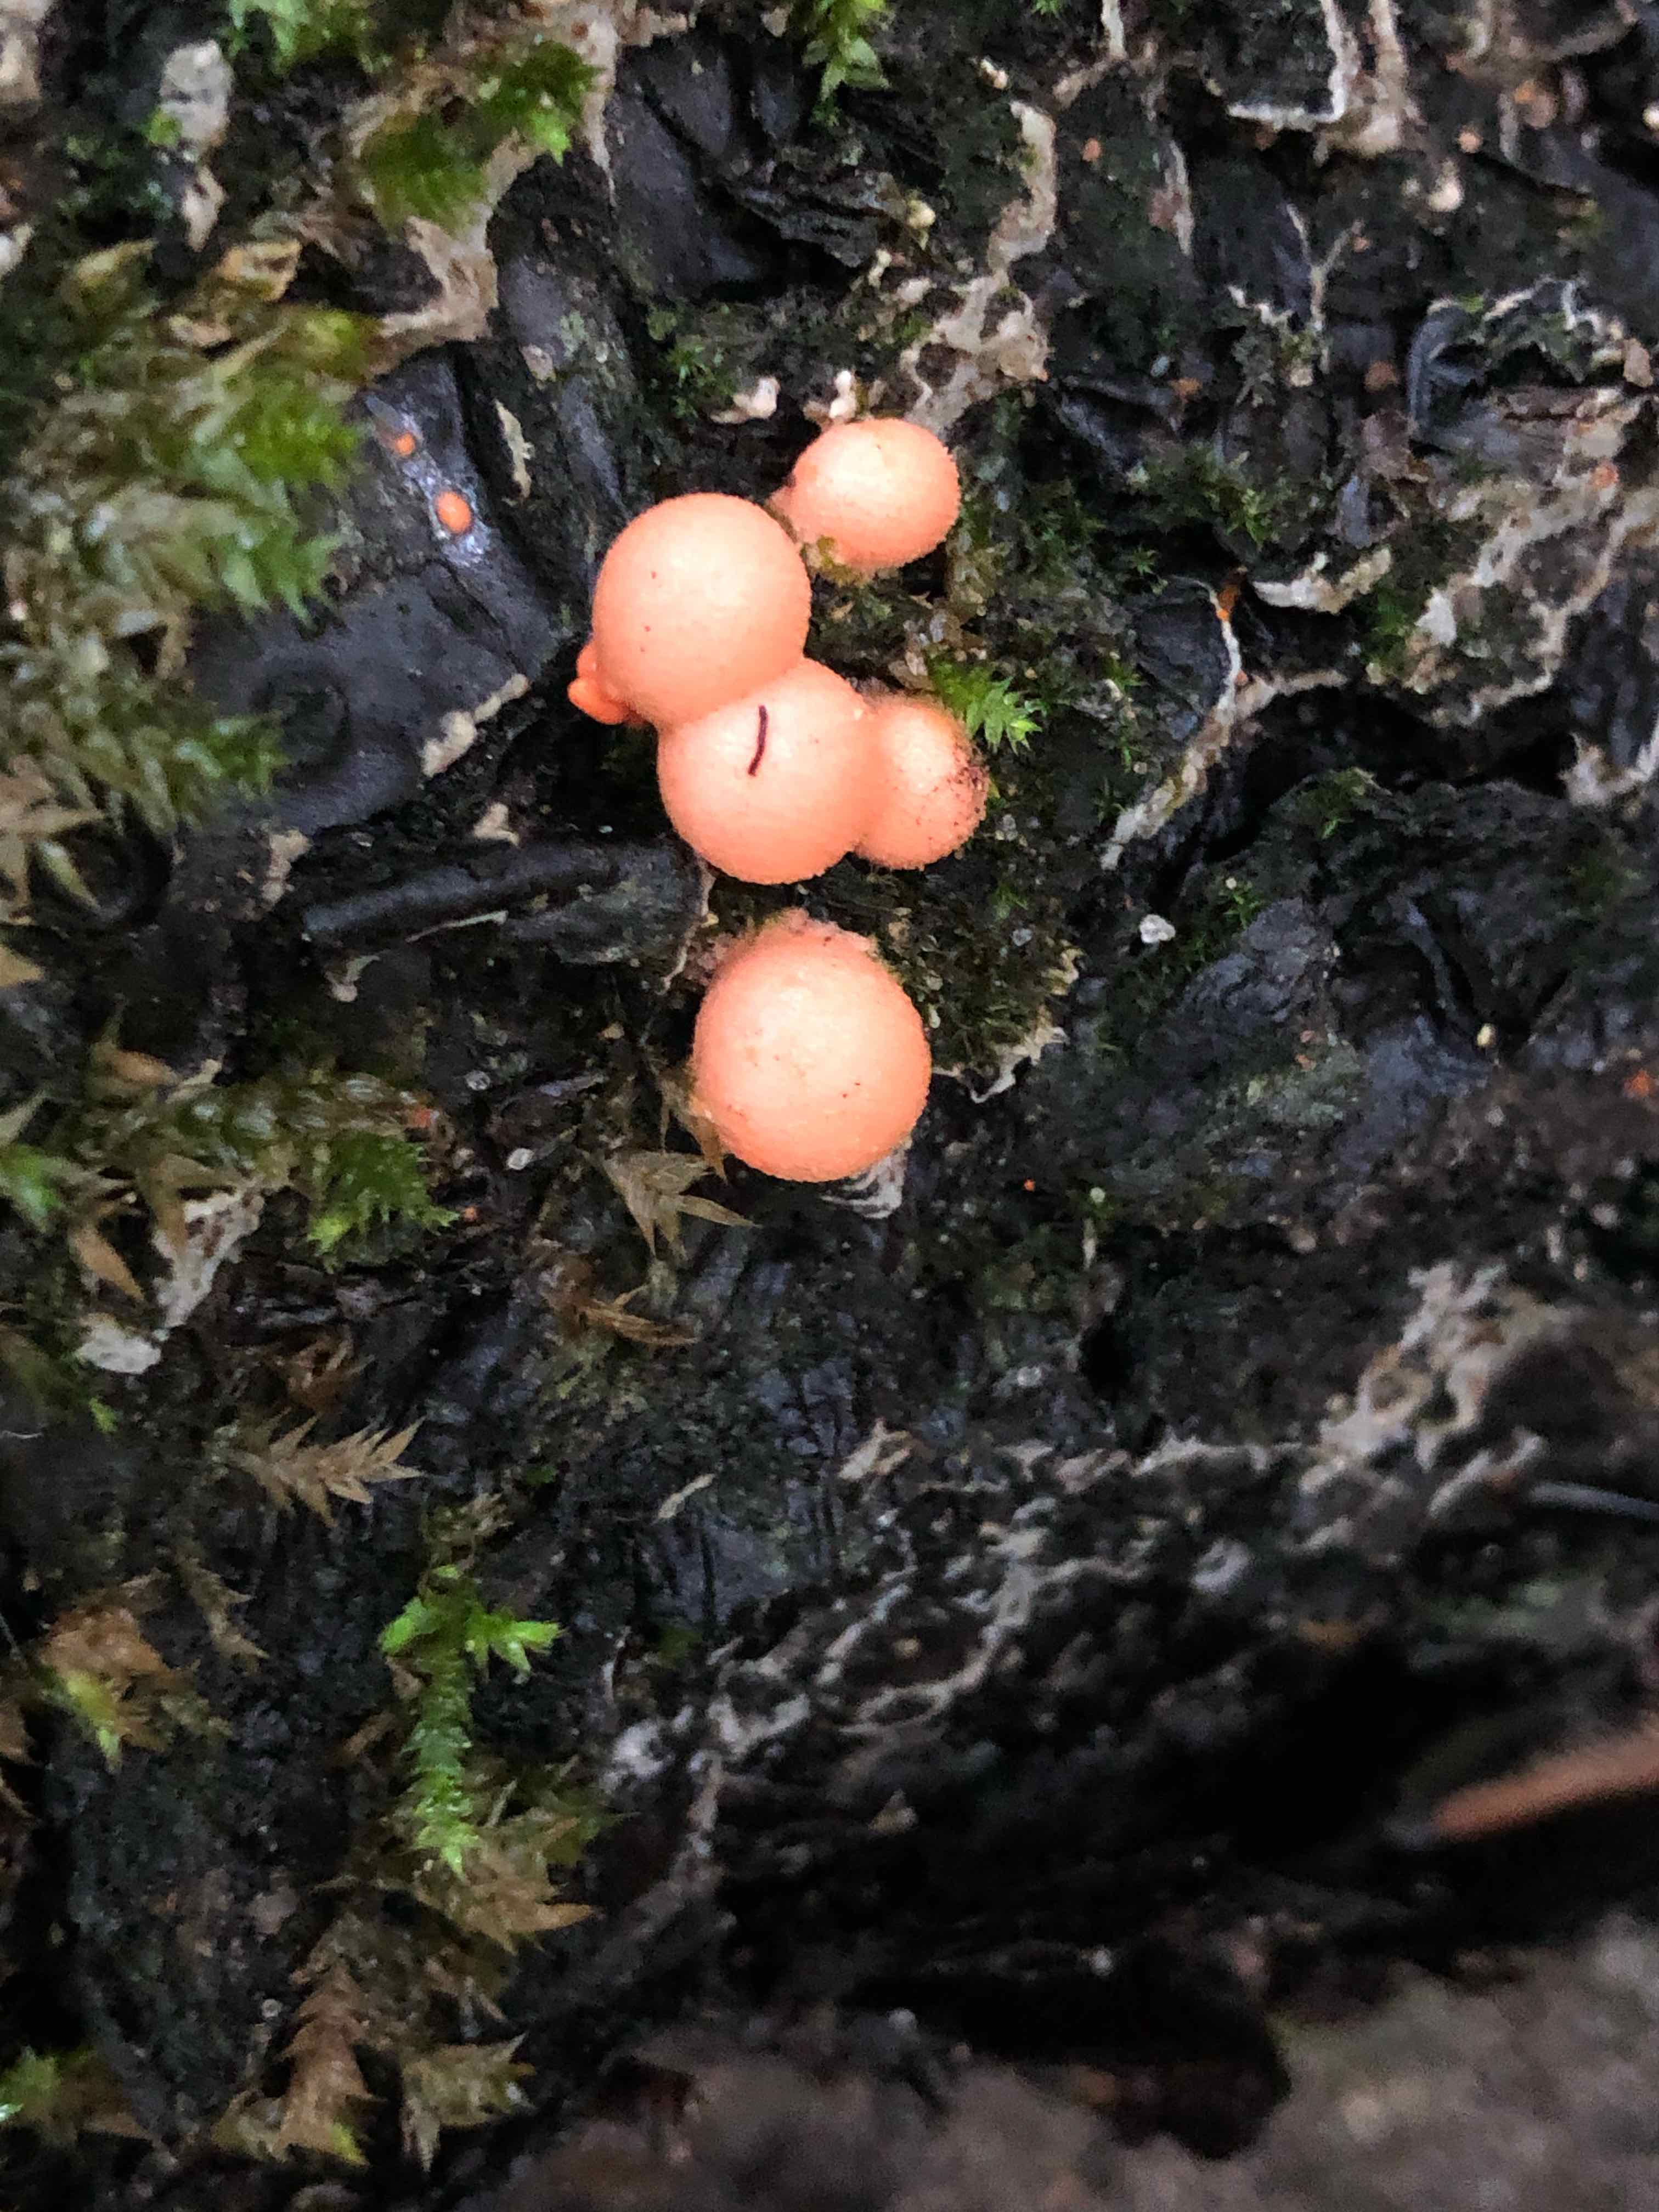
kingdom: Protozoa
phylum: Mycetozoa
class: Myxomycetes
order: Cribrariales
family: Tubiferaceae
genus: Lycogala
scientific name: Lycogala epidendrum
